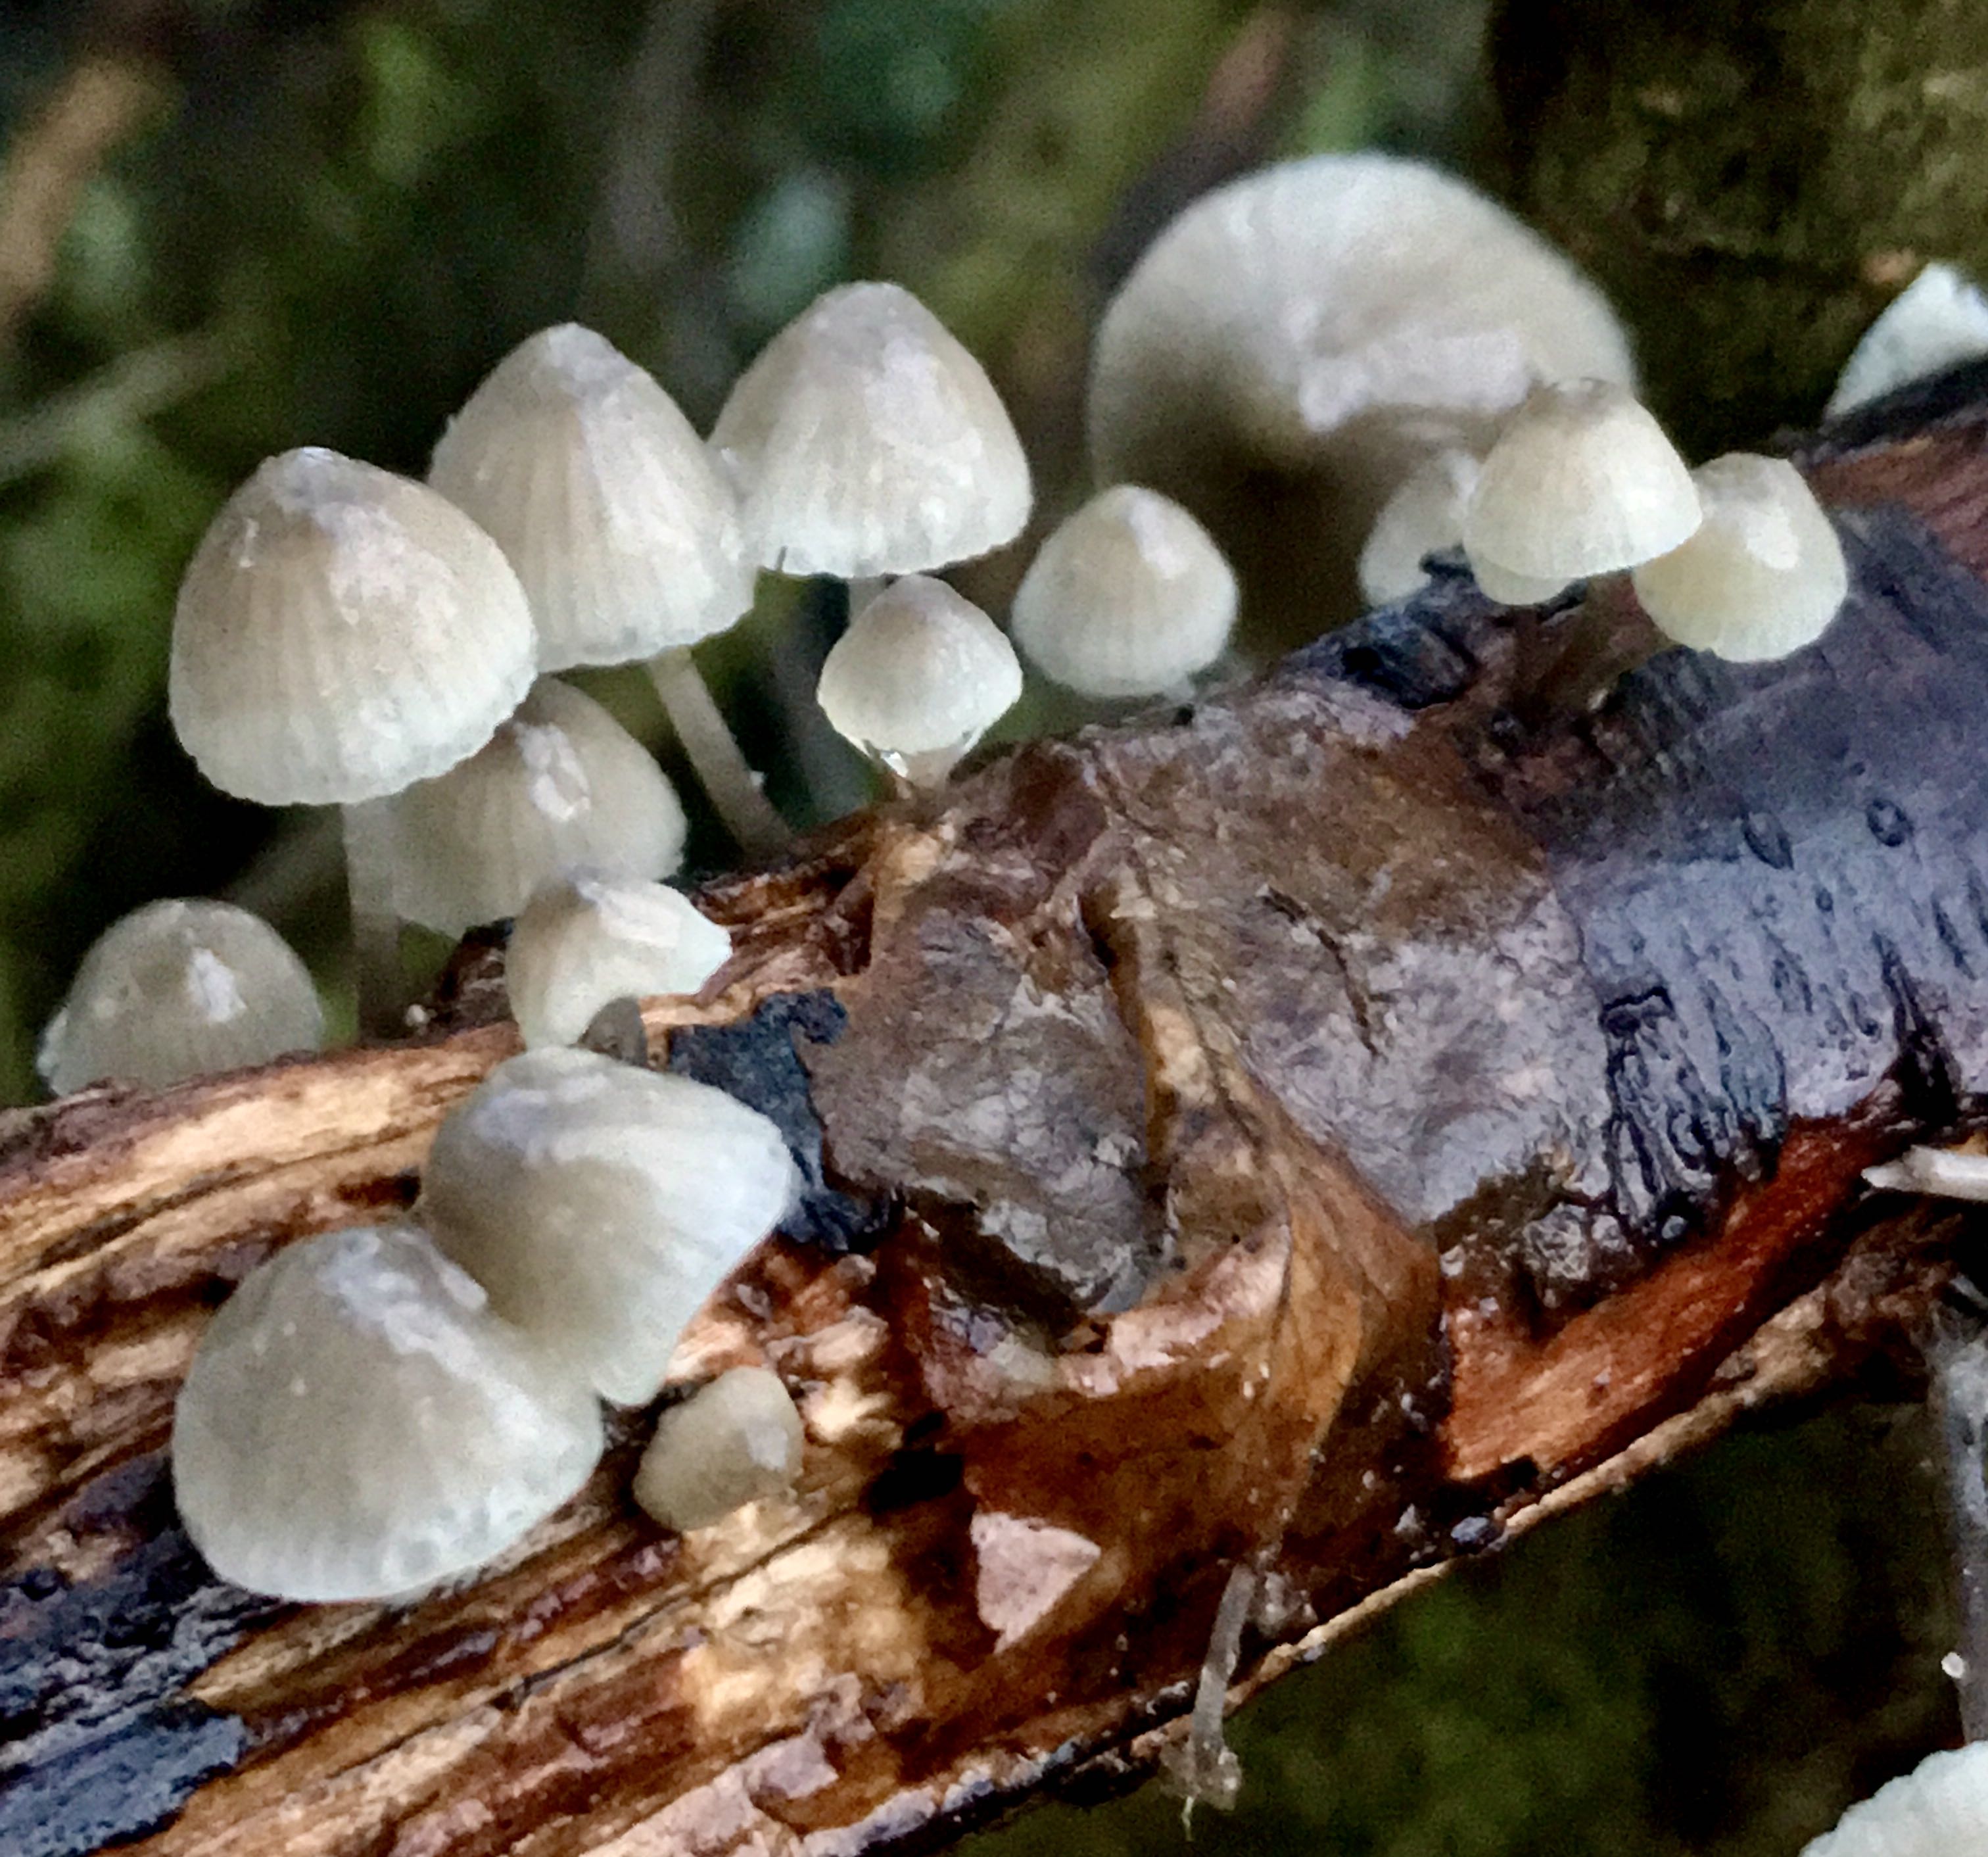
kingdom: Fungi
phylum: Basidiomycota
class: Agaricomycetes
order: Agaricales
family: Mycenaceae
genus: Mycena
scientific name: Mycena arcangeliana
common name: oliven-huesvamp
